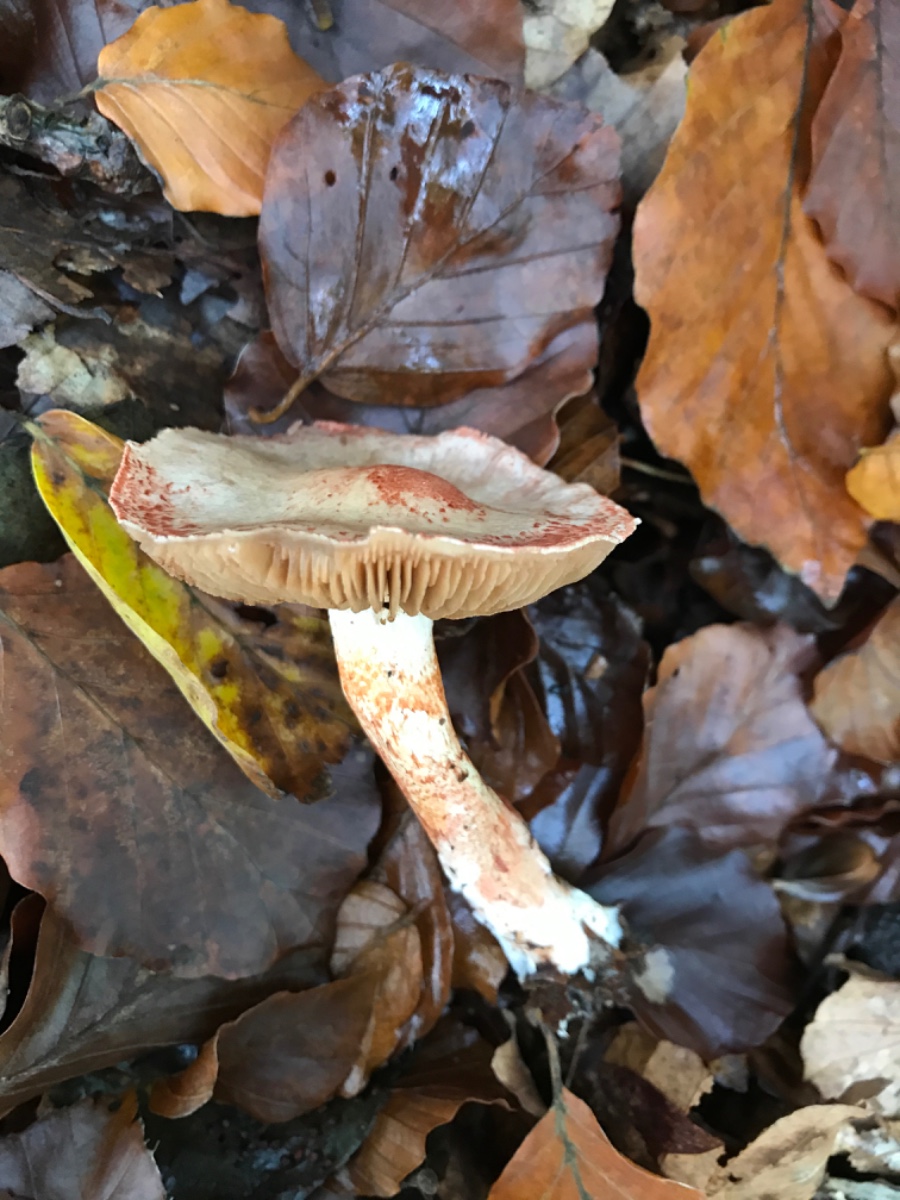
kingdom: Fungi
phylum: Basidiomycota
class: Agaricomycetes
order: Agaricales
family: Cortinariaceae
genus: Cortinarius
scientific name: Cortinarius bolaris
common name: cinnoberskællet slørhat
